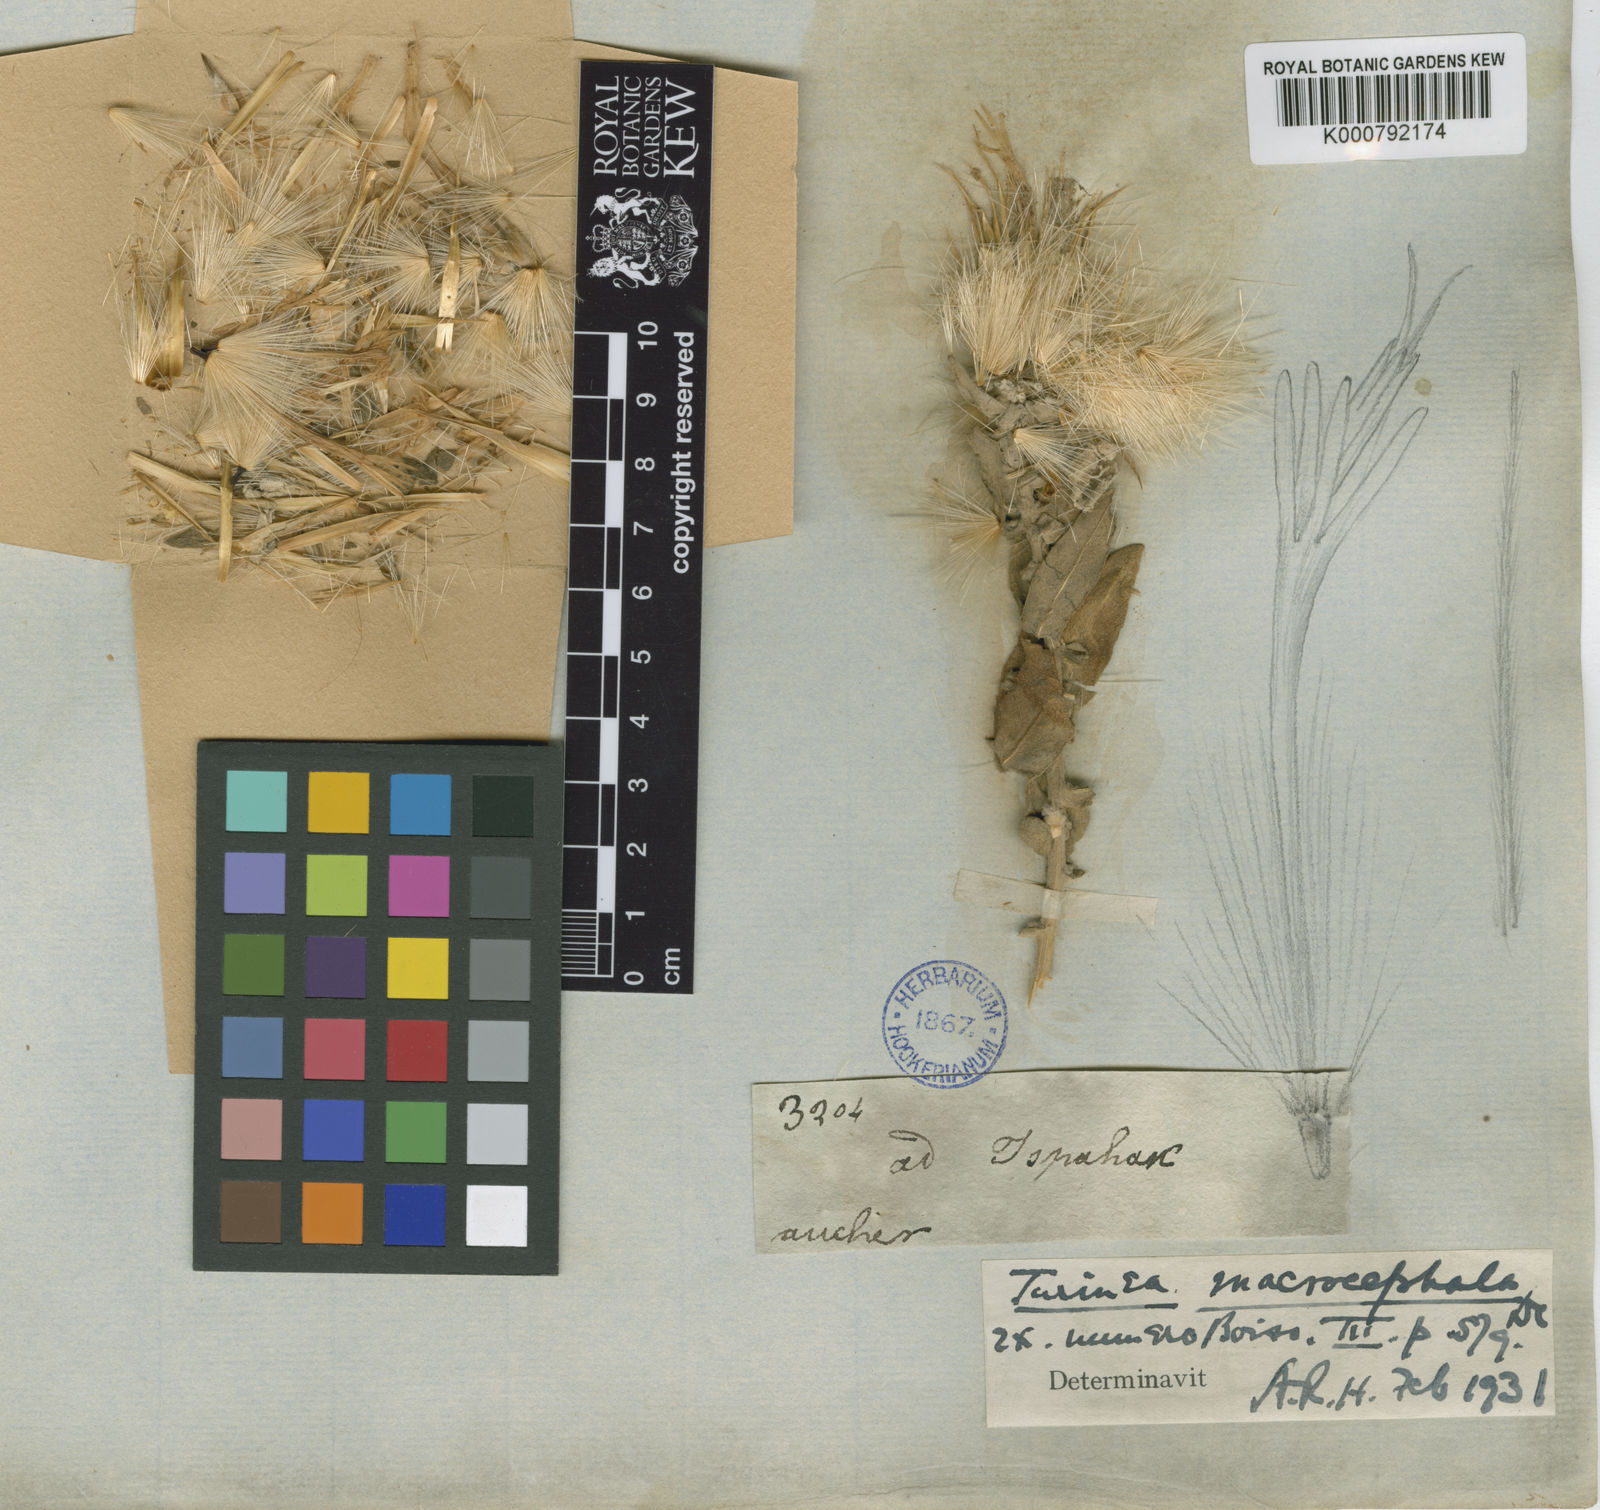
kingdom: Plantae
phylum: Tracheophyta
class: Magnoliopsida
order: Asterales
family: Asteraceae
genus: Jurinea
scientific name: Jurinea macrocephala
